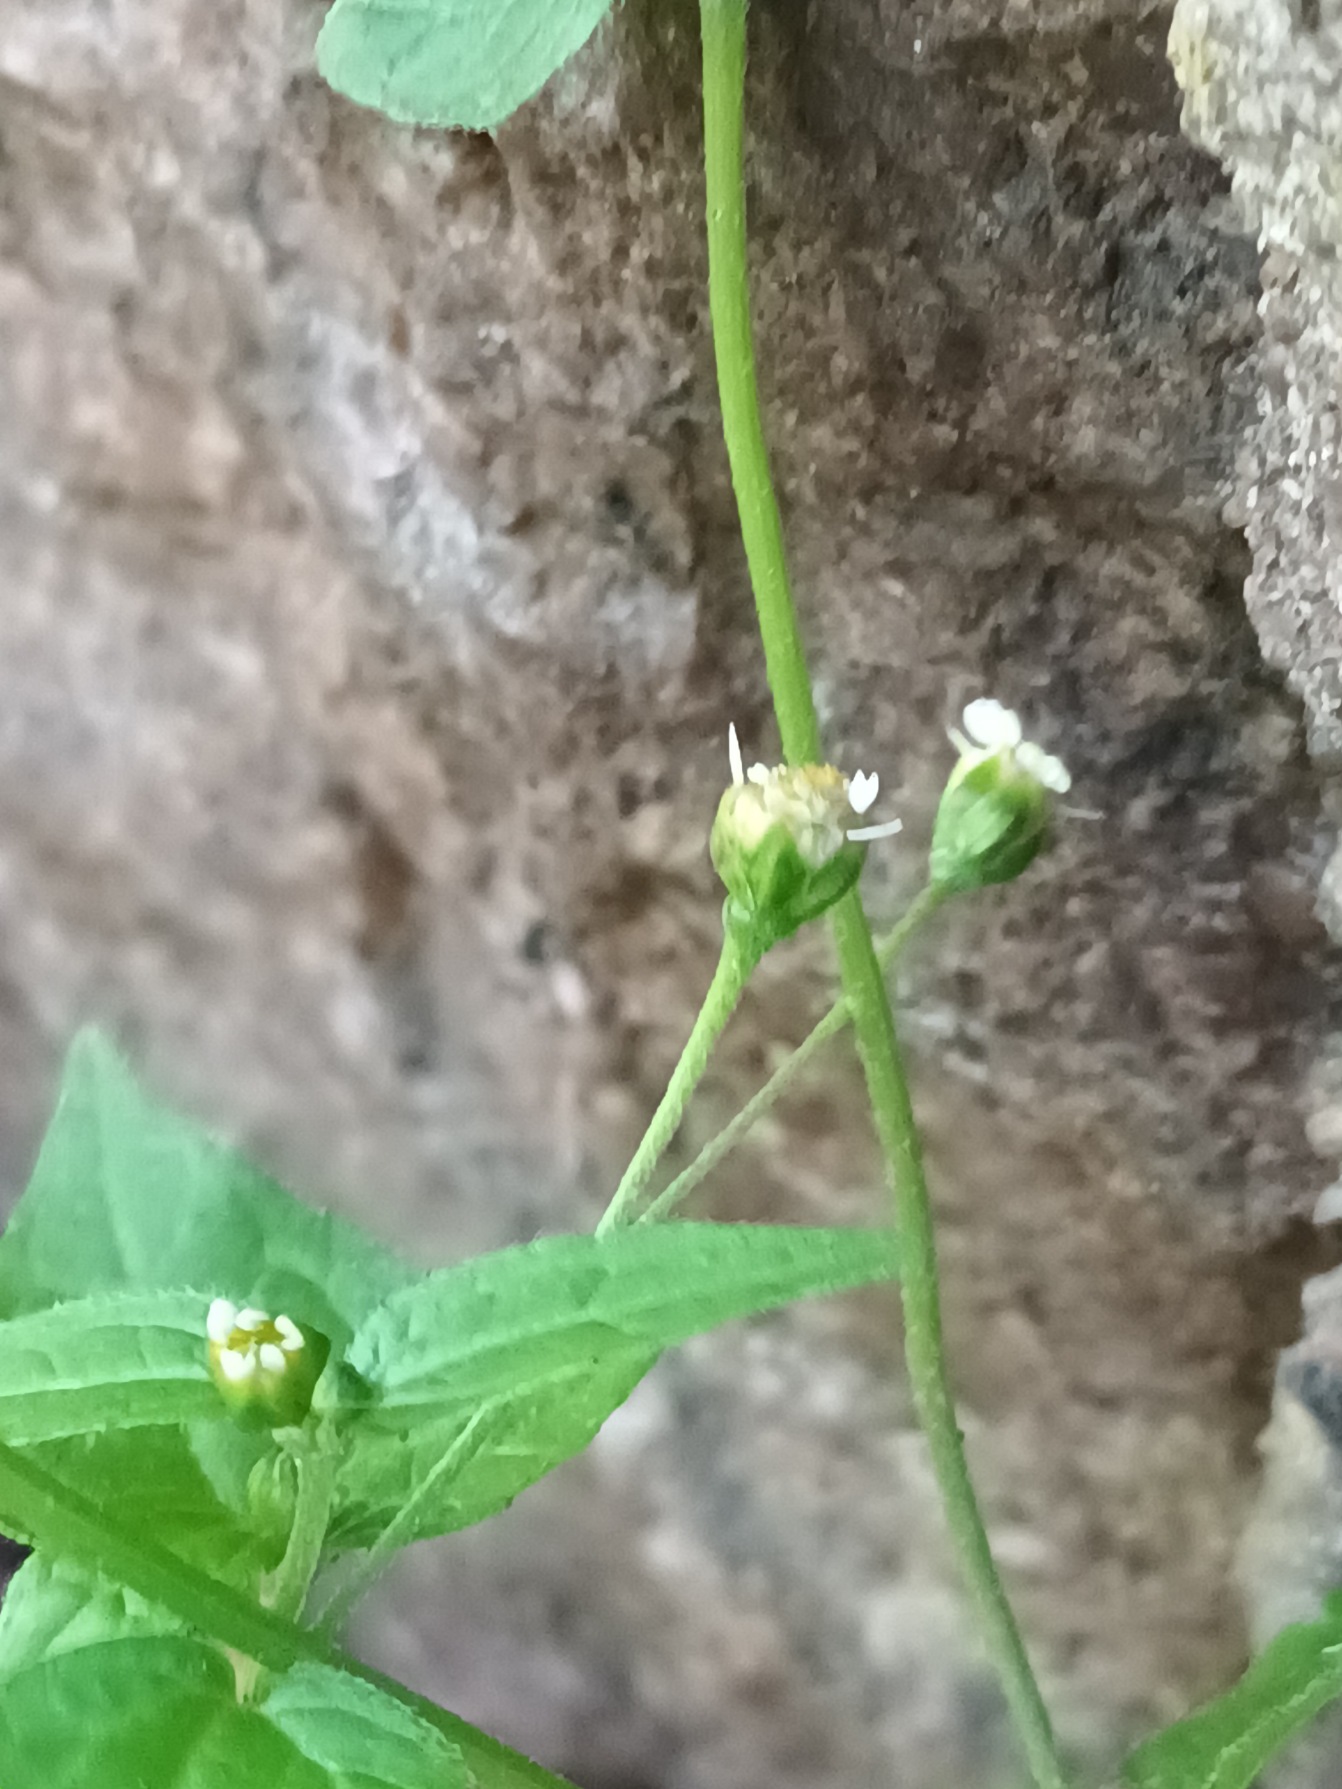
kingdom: Plantae
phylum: Tracheophyta
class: Magnoliopsida
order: Asterales
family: Asteraceae
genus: Galinsoga
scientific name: Galinsoga parviflora
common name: Håret kortstråle
